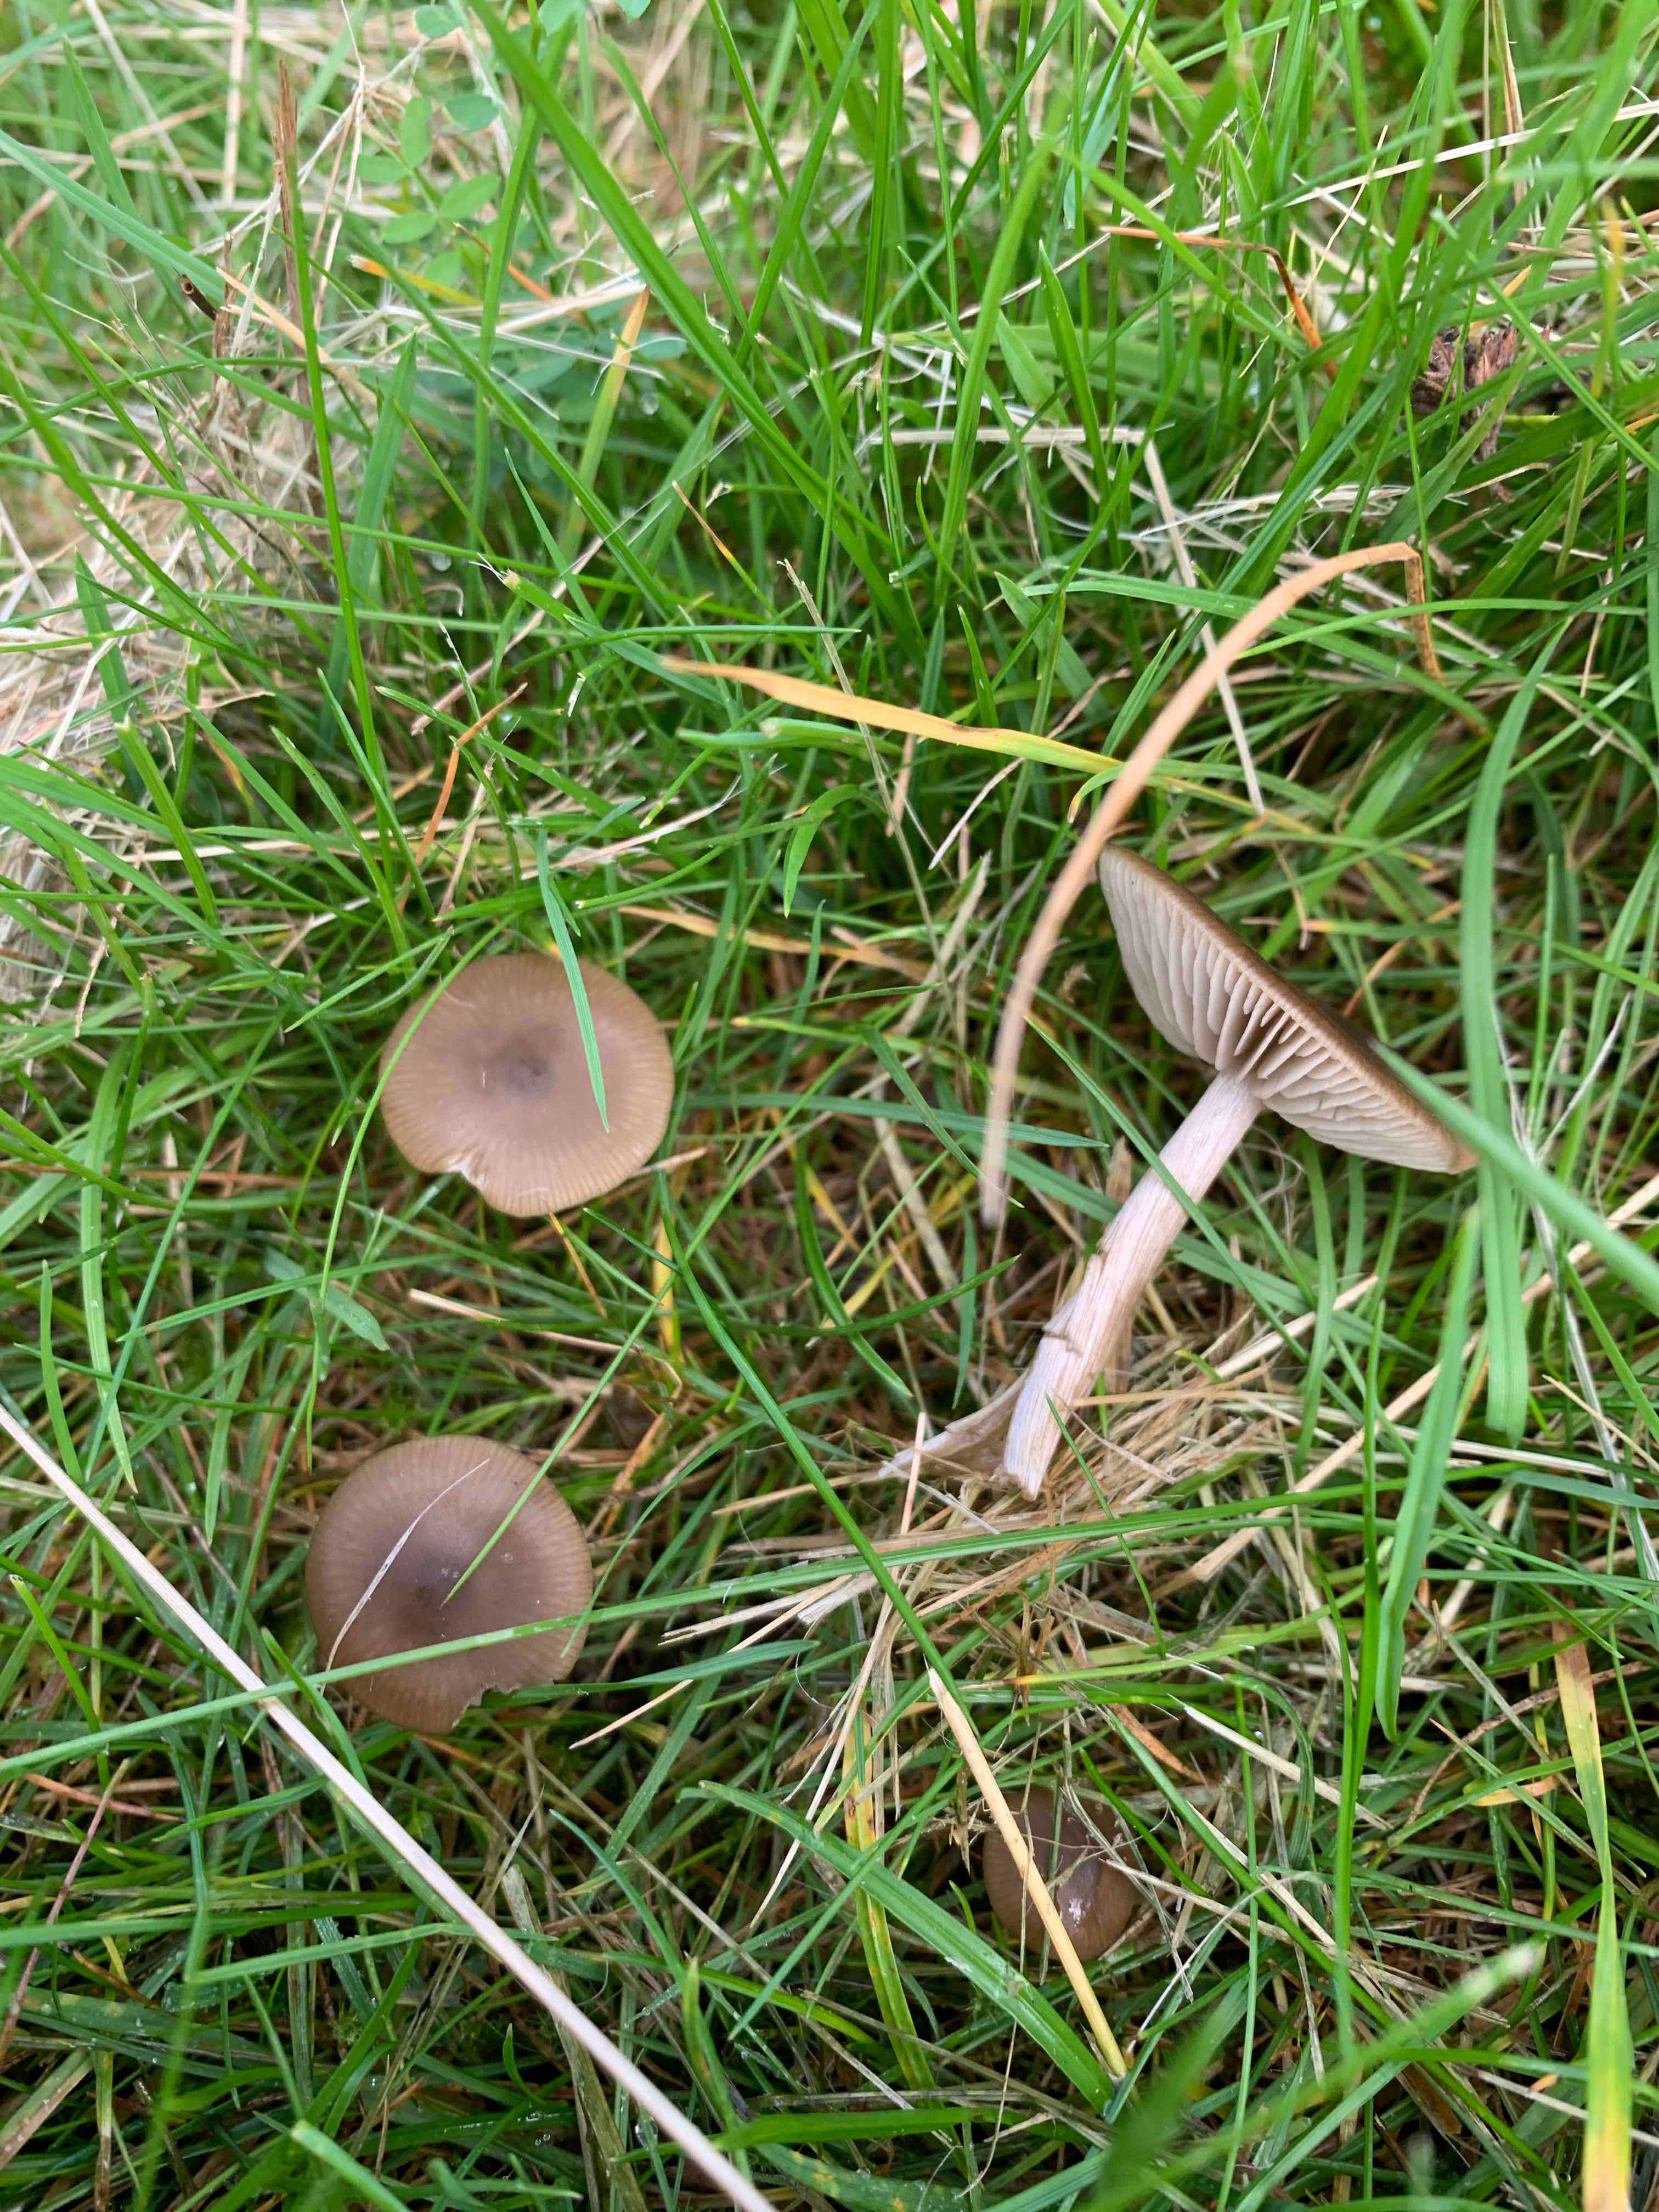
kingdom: Fungi
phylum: Basidiomycota
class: Agaricomycetes
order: Agaricales
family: Entolomataceae
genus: Entoloma
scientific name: Entoloma sericeum
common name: silkeglinsende rødblad
